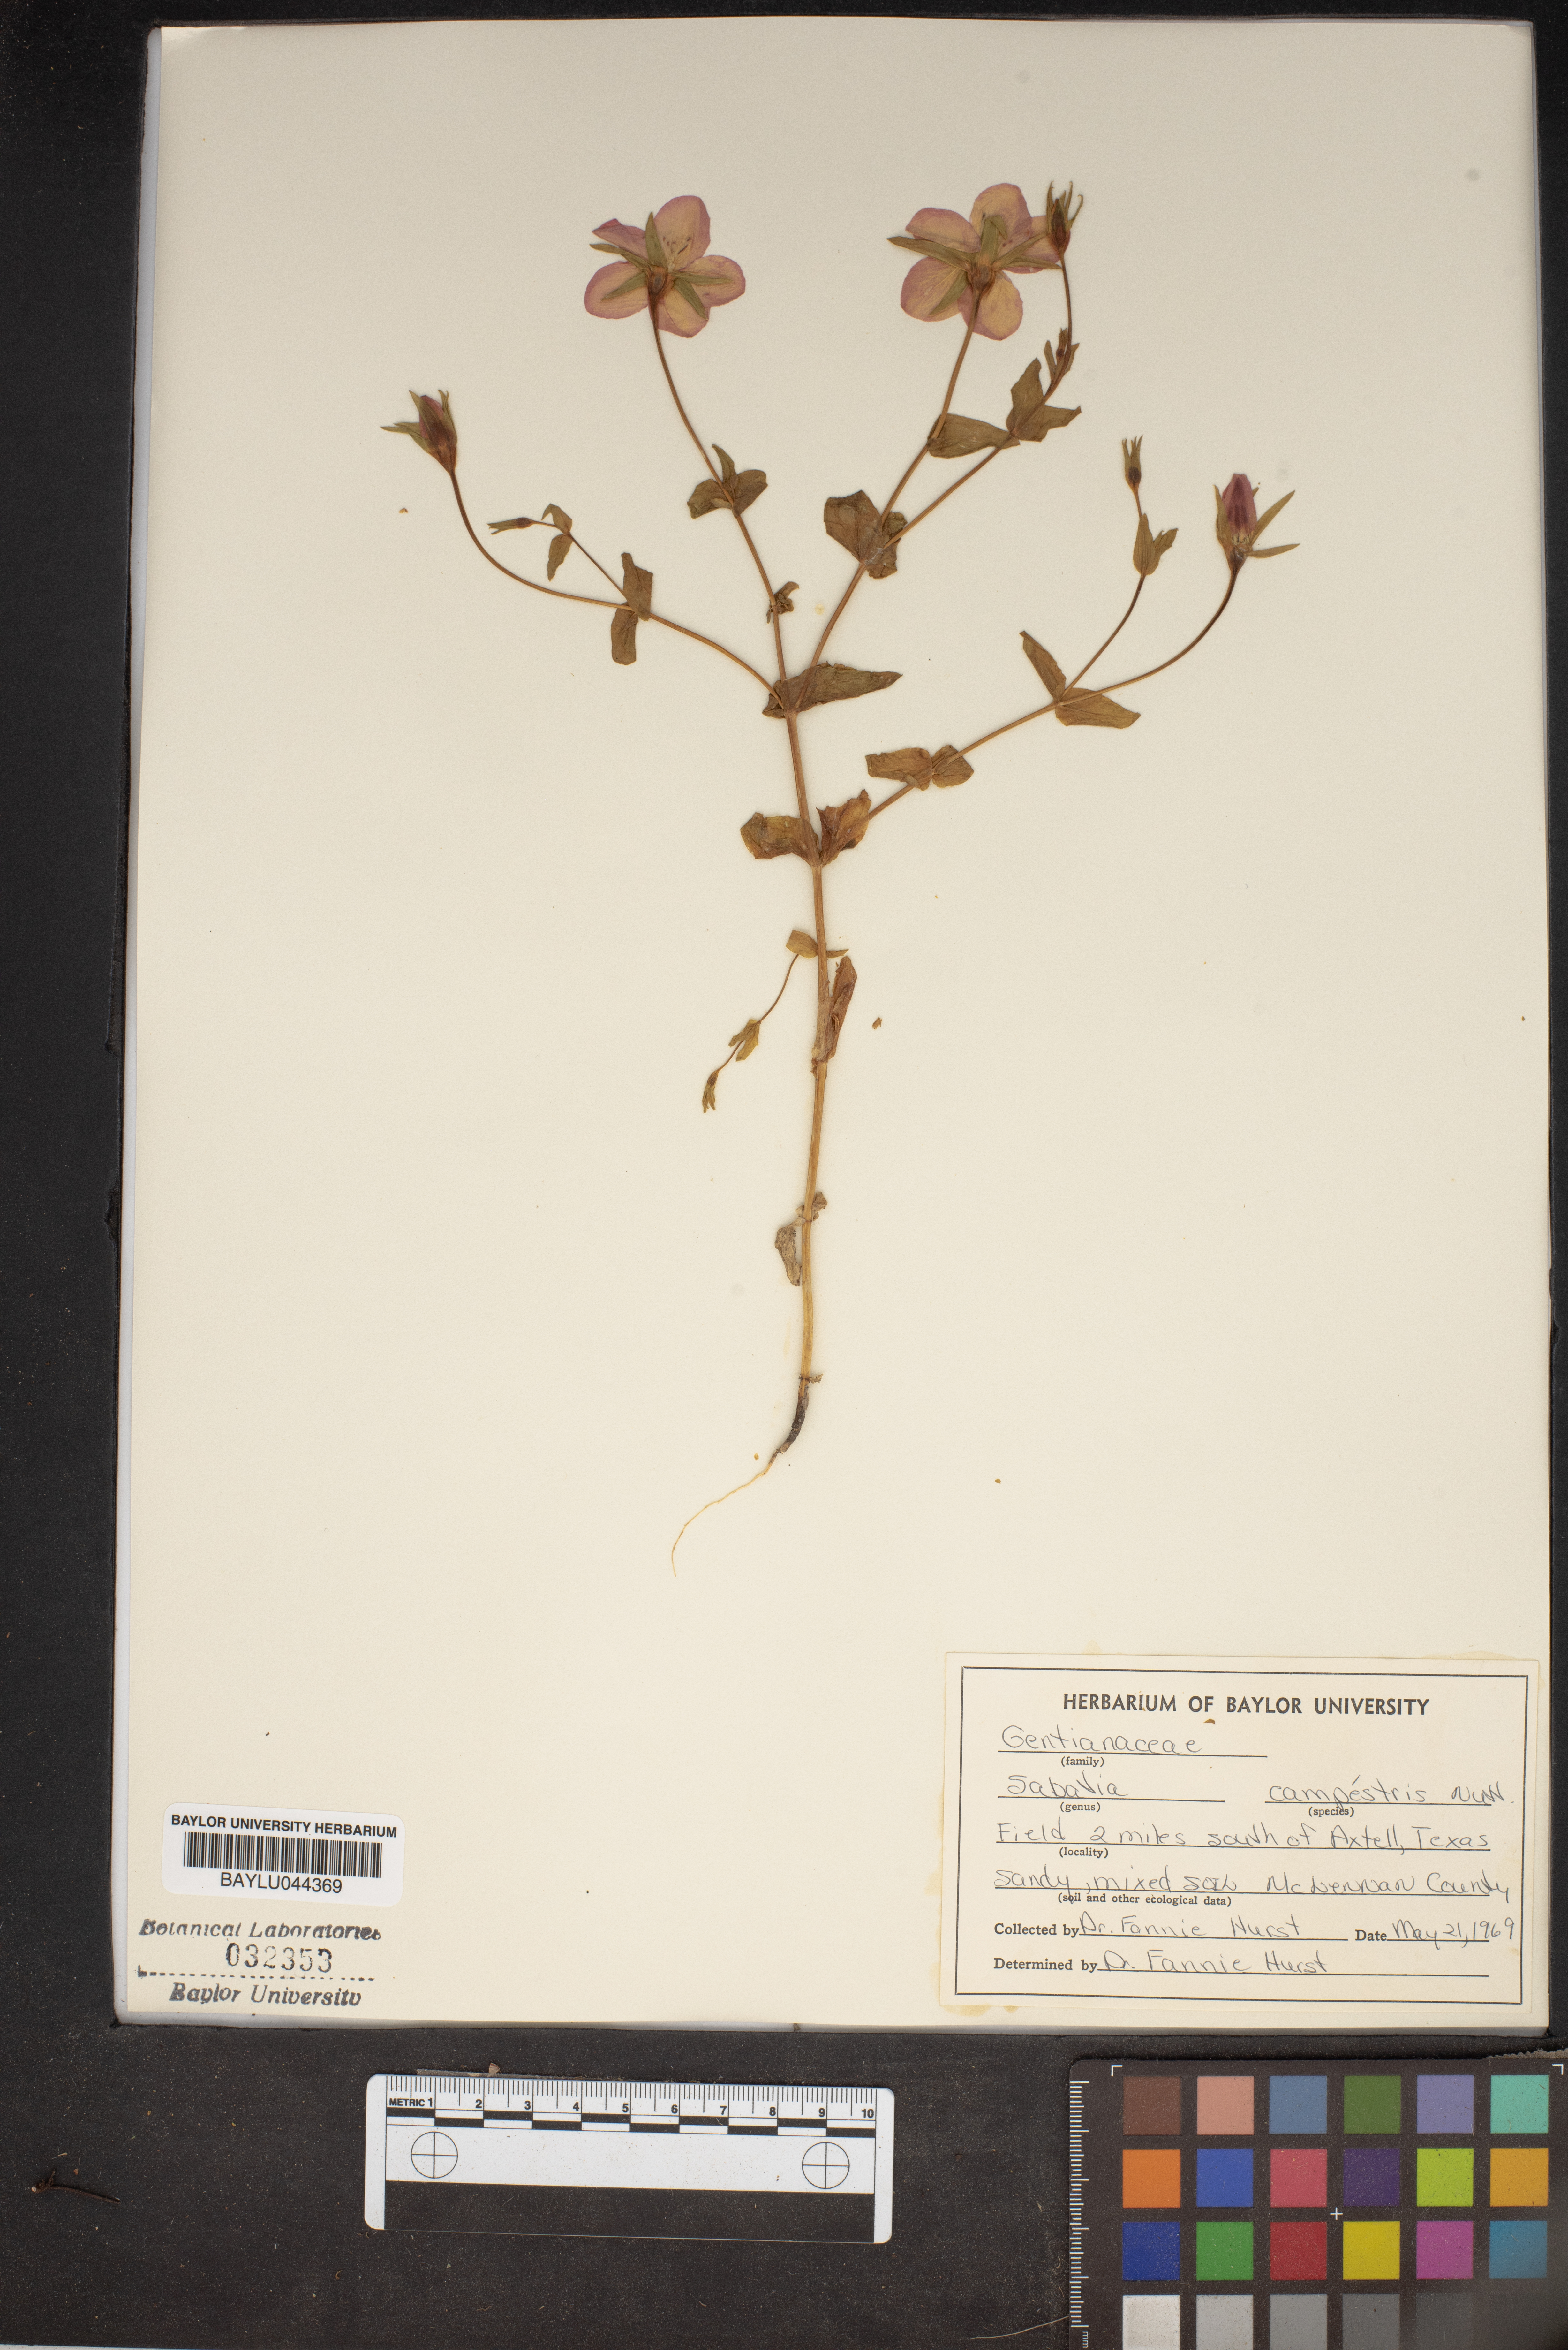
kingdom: Plantae
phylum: Tracheophyta
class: Magnoliopsida
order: Gentianales
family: Gentianaceae
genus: Sabatia
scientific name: Sabatia campestris
